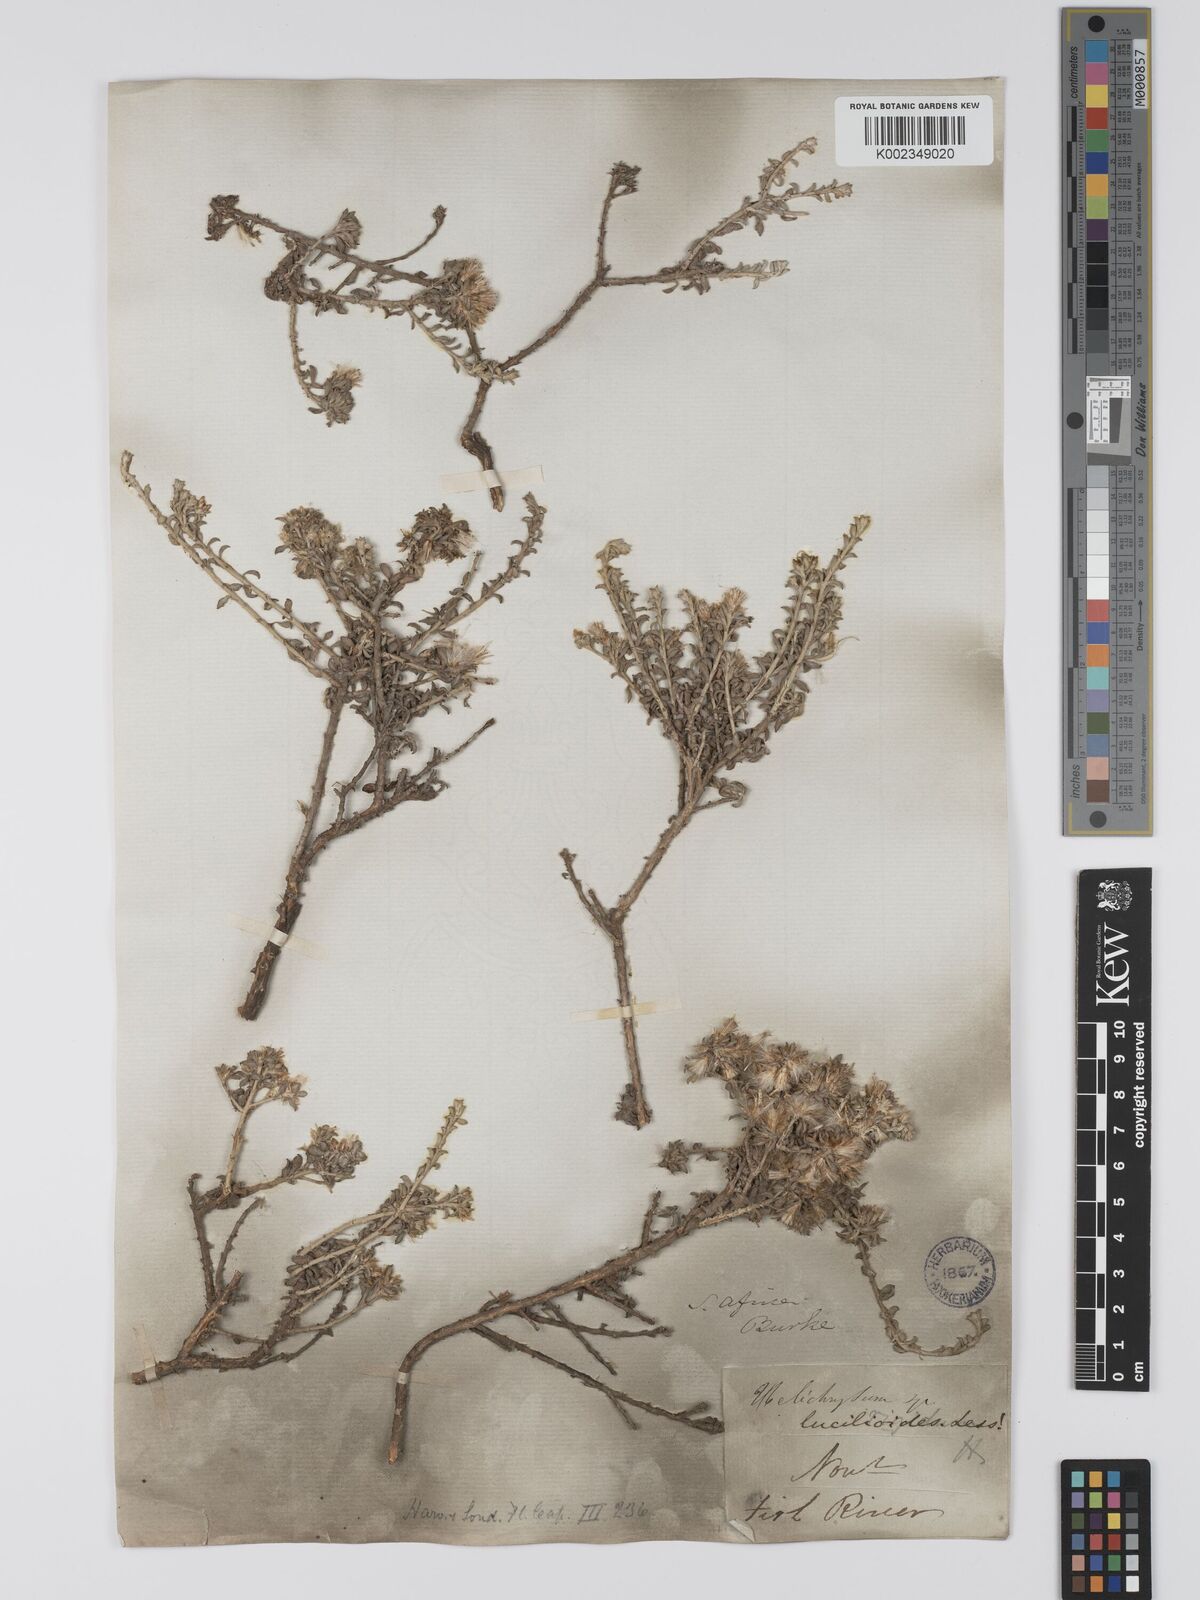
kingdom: Plantae
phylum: Tracheophyta
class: Magnoliopsida
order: Asterales
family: Asteraceae
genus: Helichrysum
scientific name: Helichrysum lucilioides
